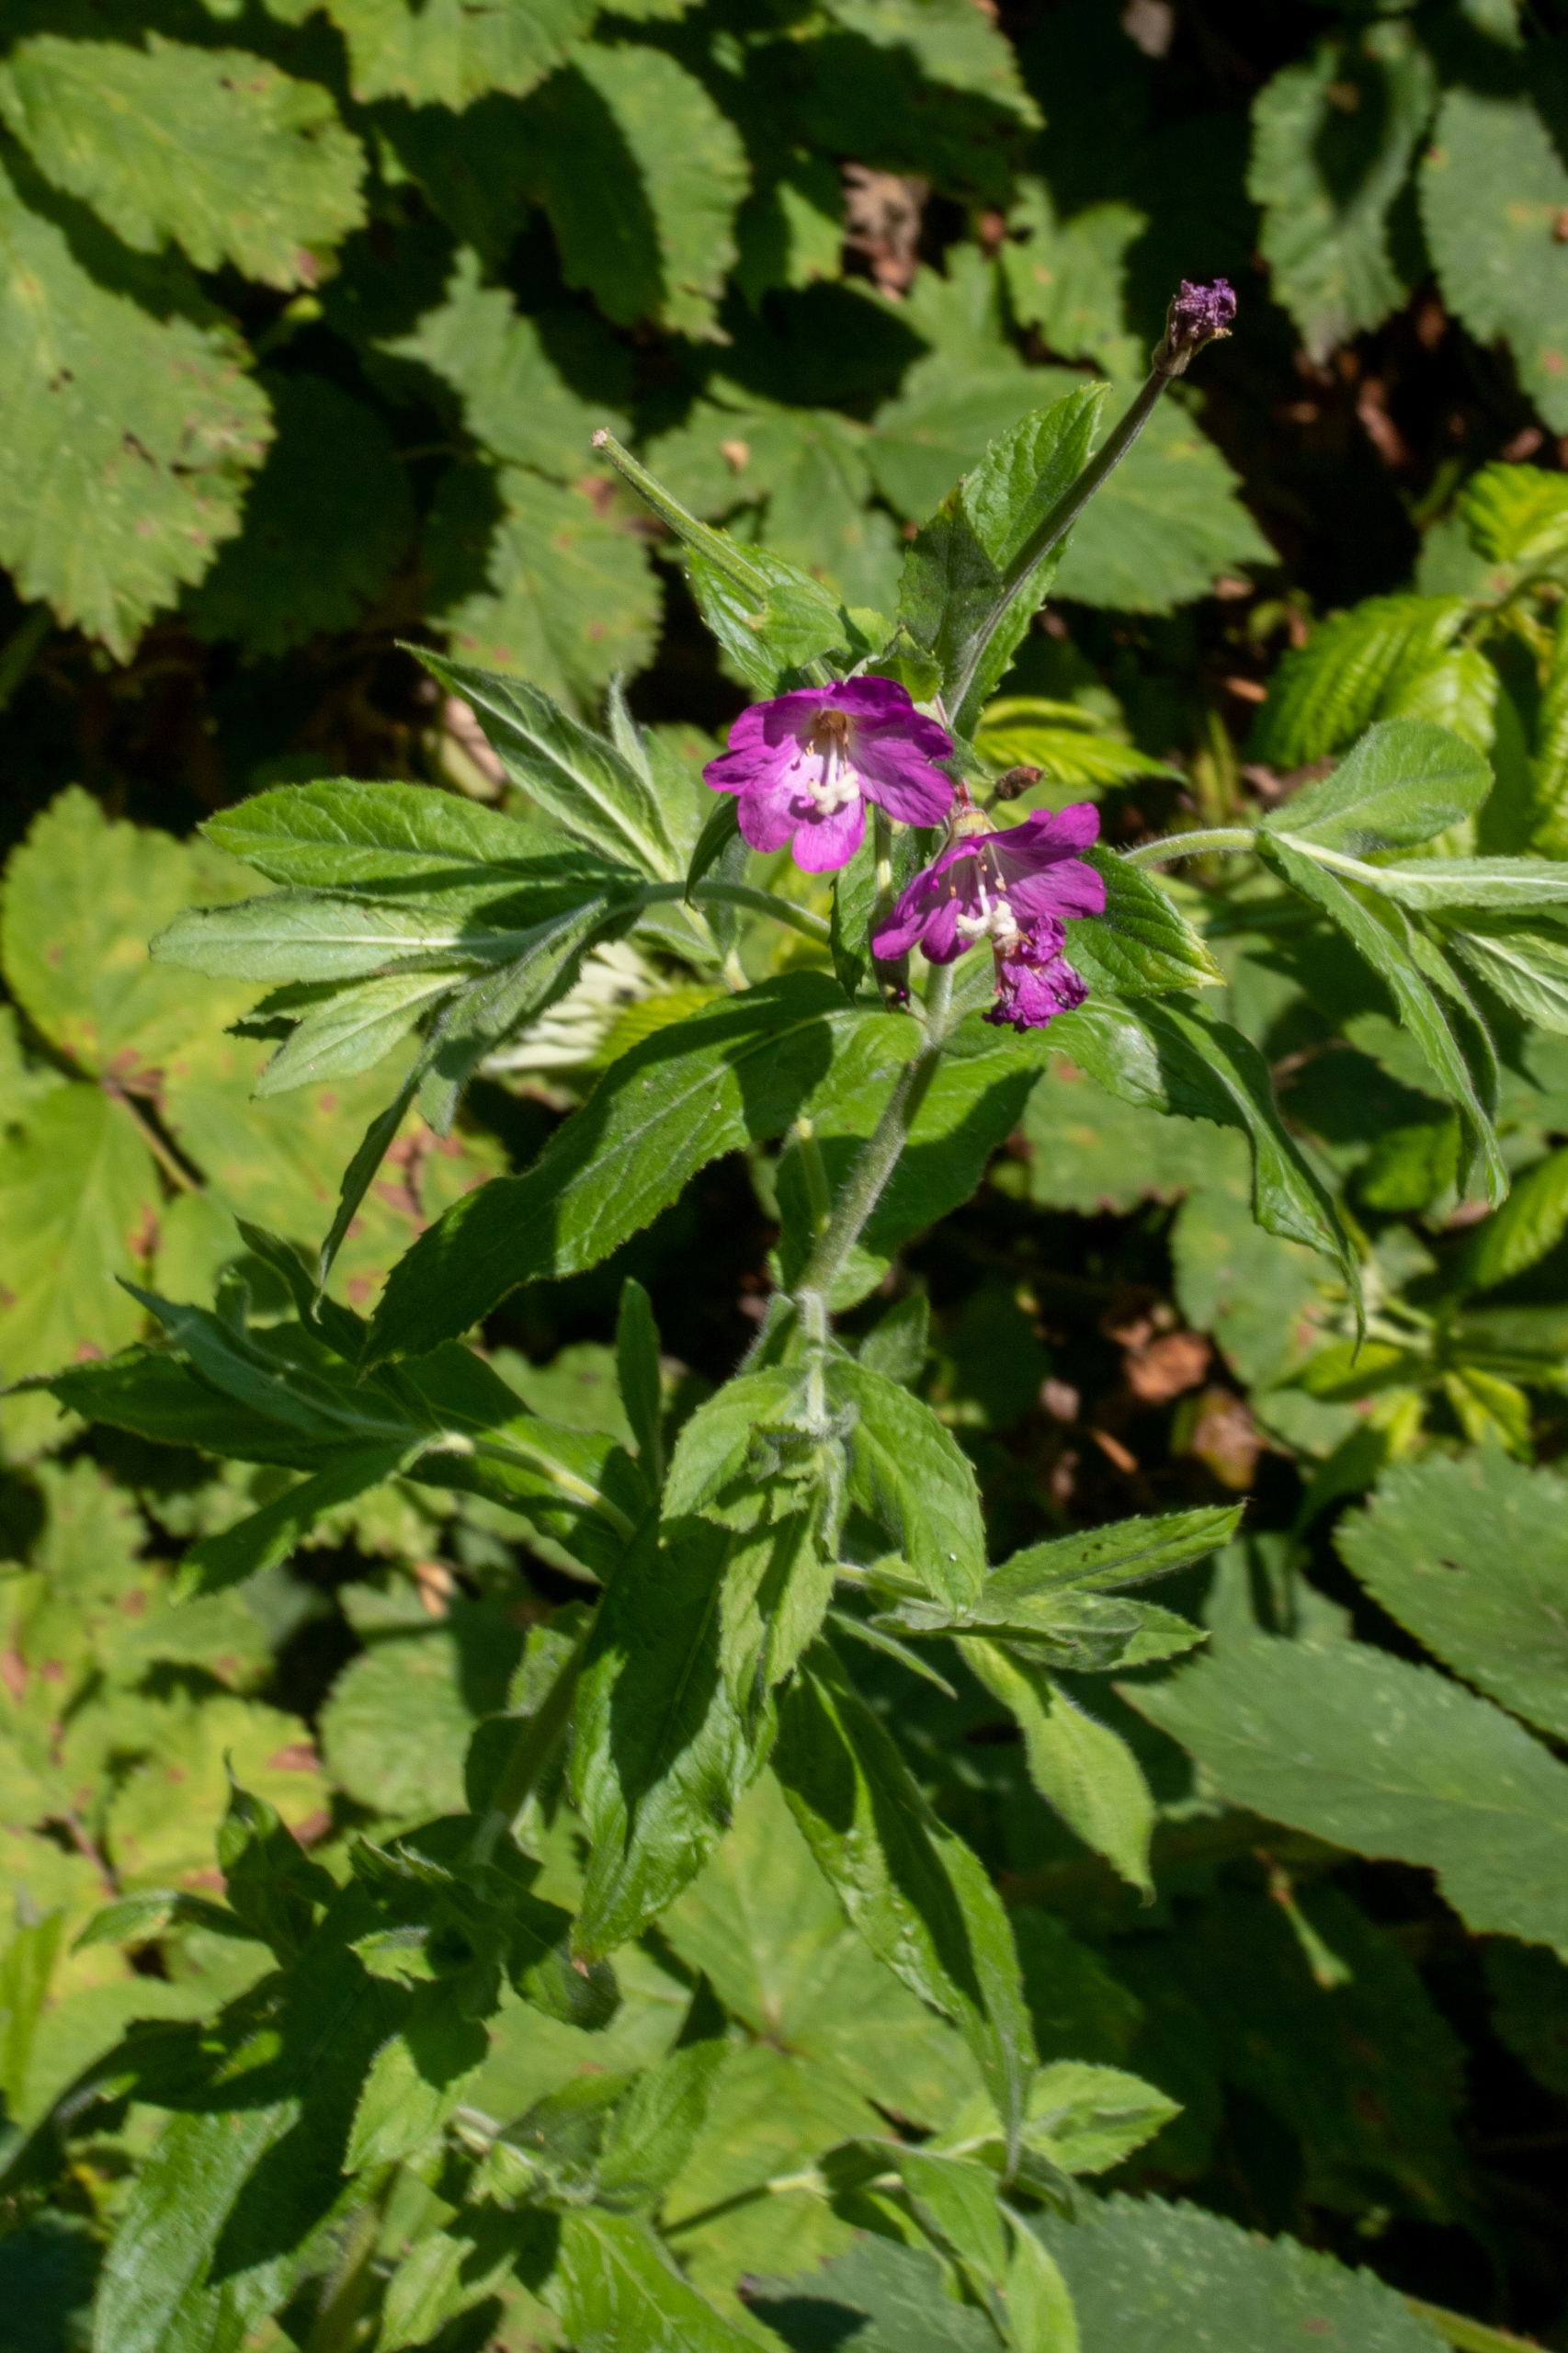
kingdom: Plantae
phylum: Tracheophyta
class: Magnoliopsida
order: Myrtales
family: Onagraceae
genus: Epilobium
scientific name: Epilobium hirsutum
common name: Lådden dueurt
